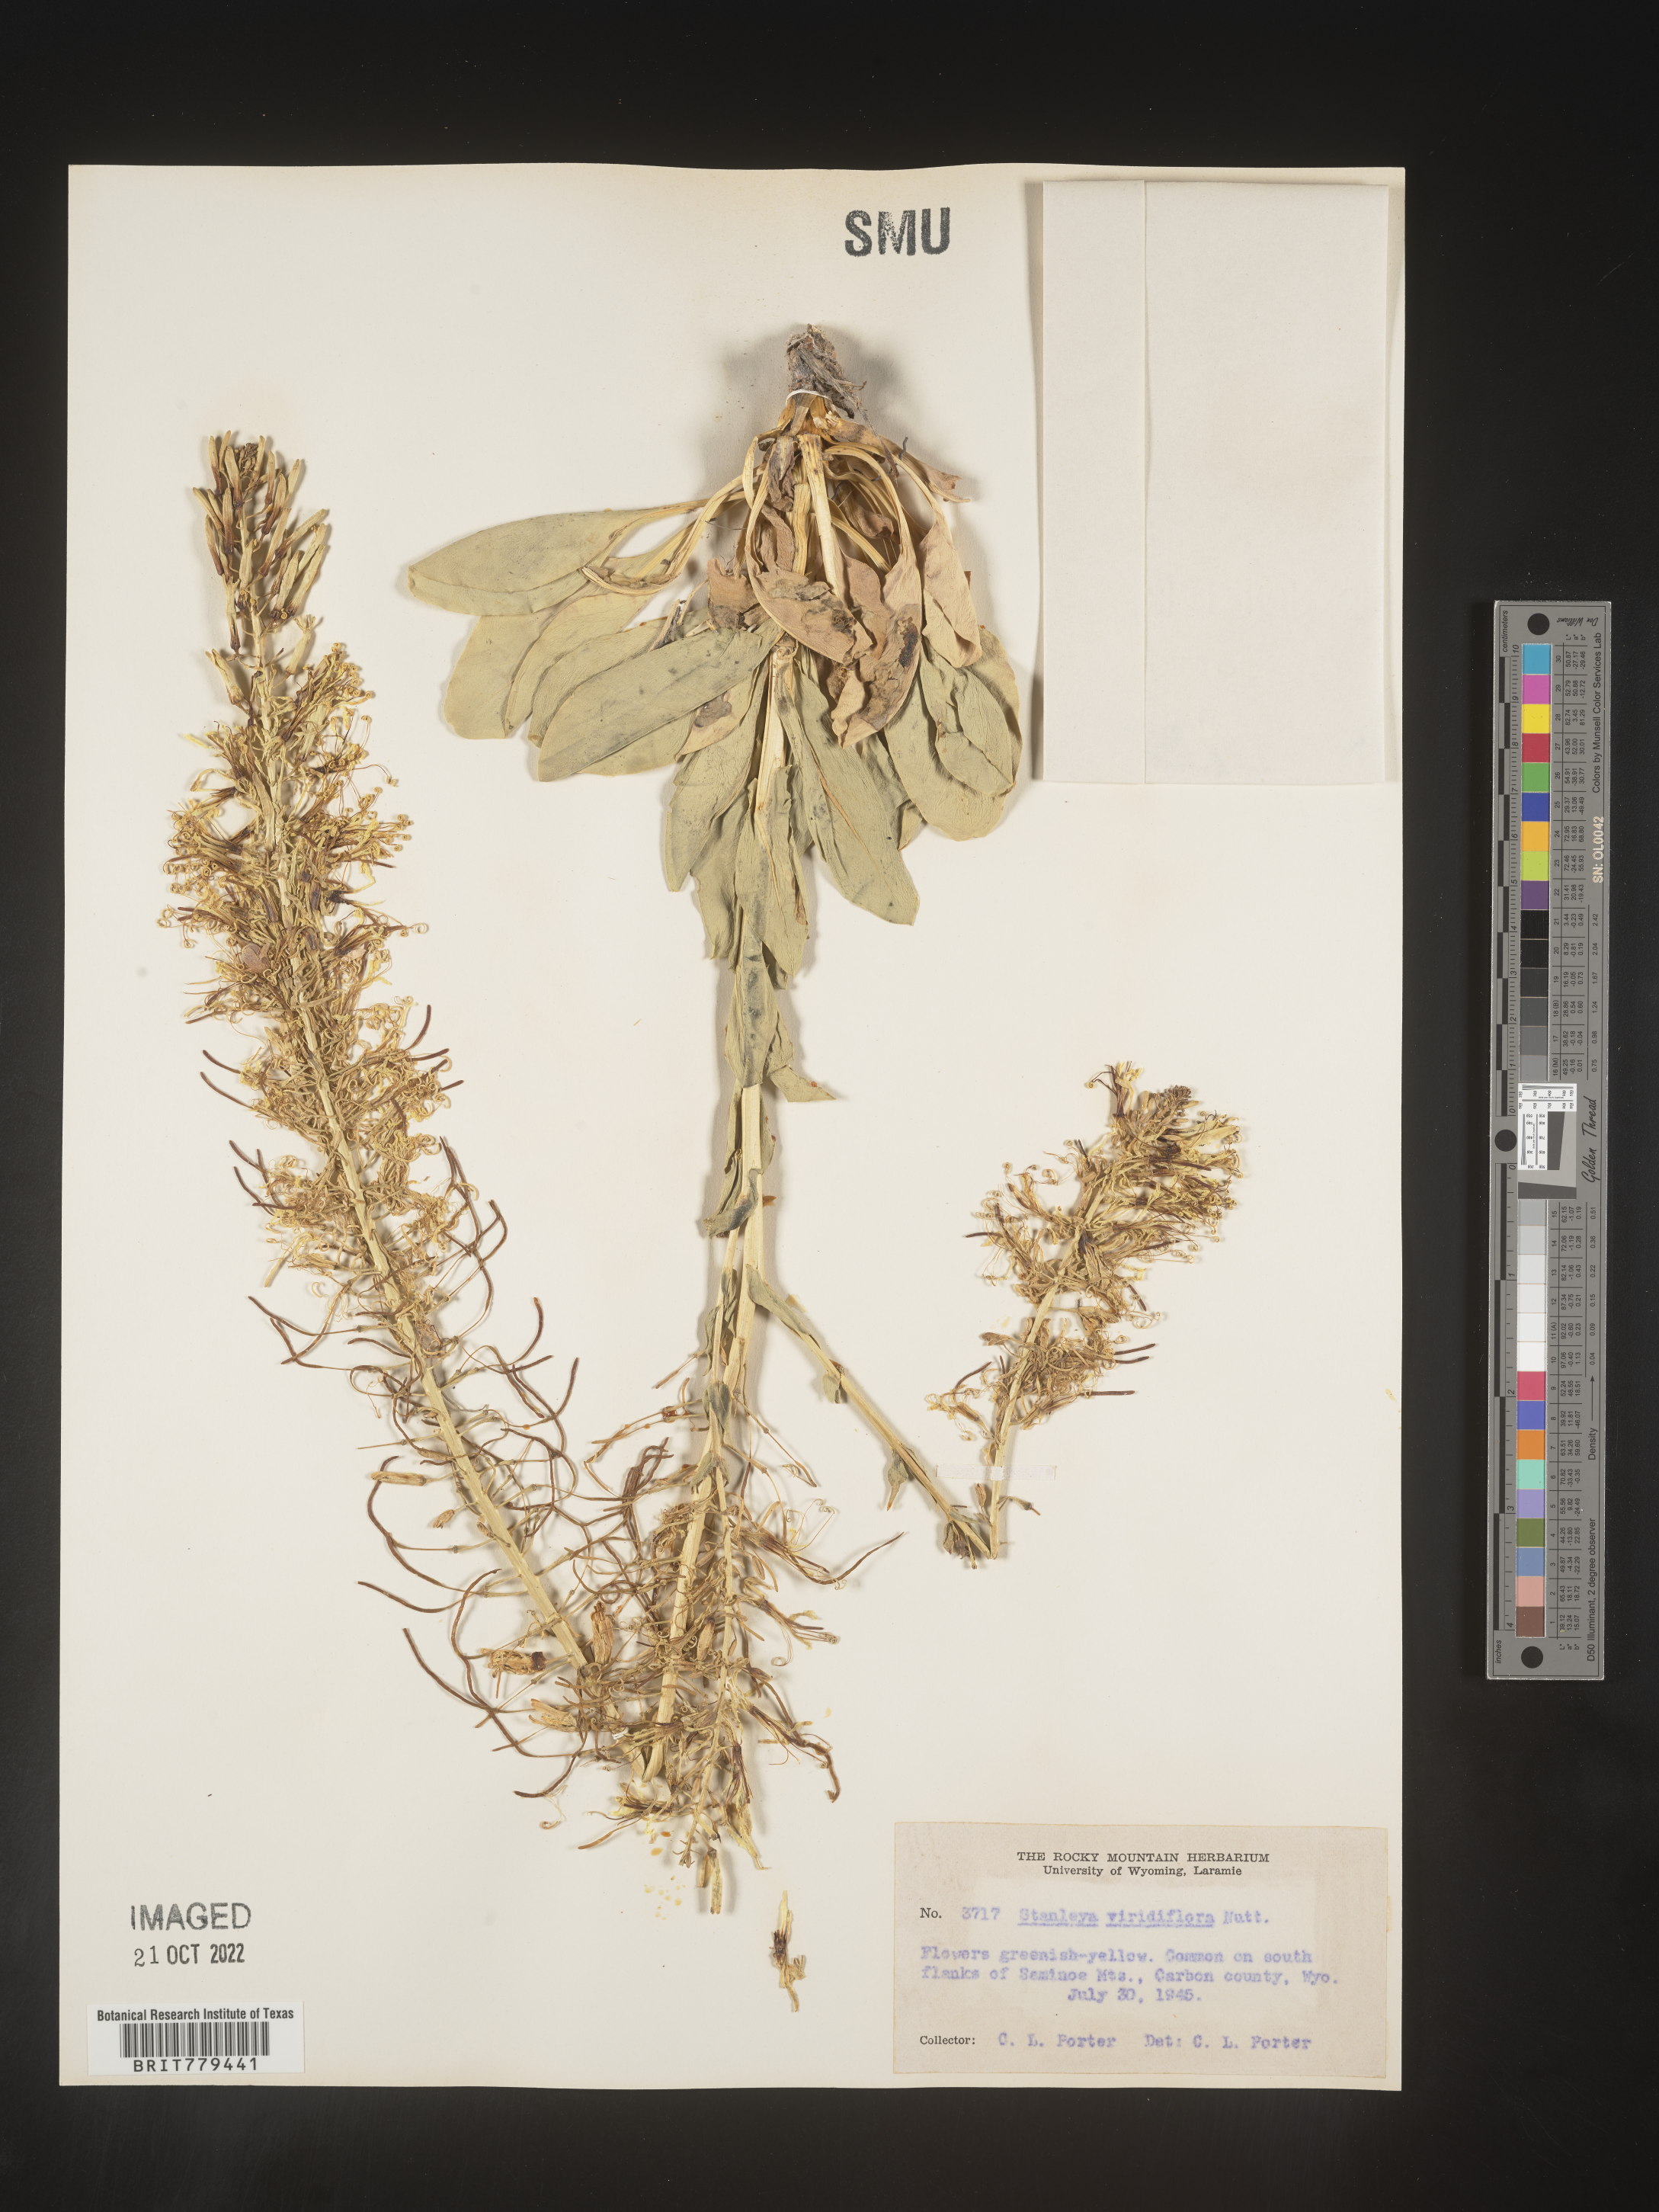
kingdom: Plantae
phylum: Tracheophyta
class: Magnoliopsida
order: Brassicales
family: Brassicaceae
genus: Stanleya
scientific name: Stanleya
